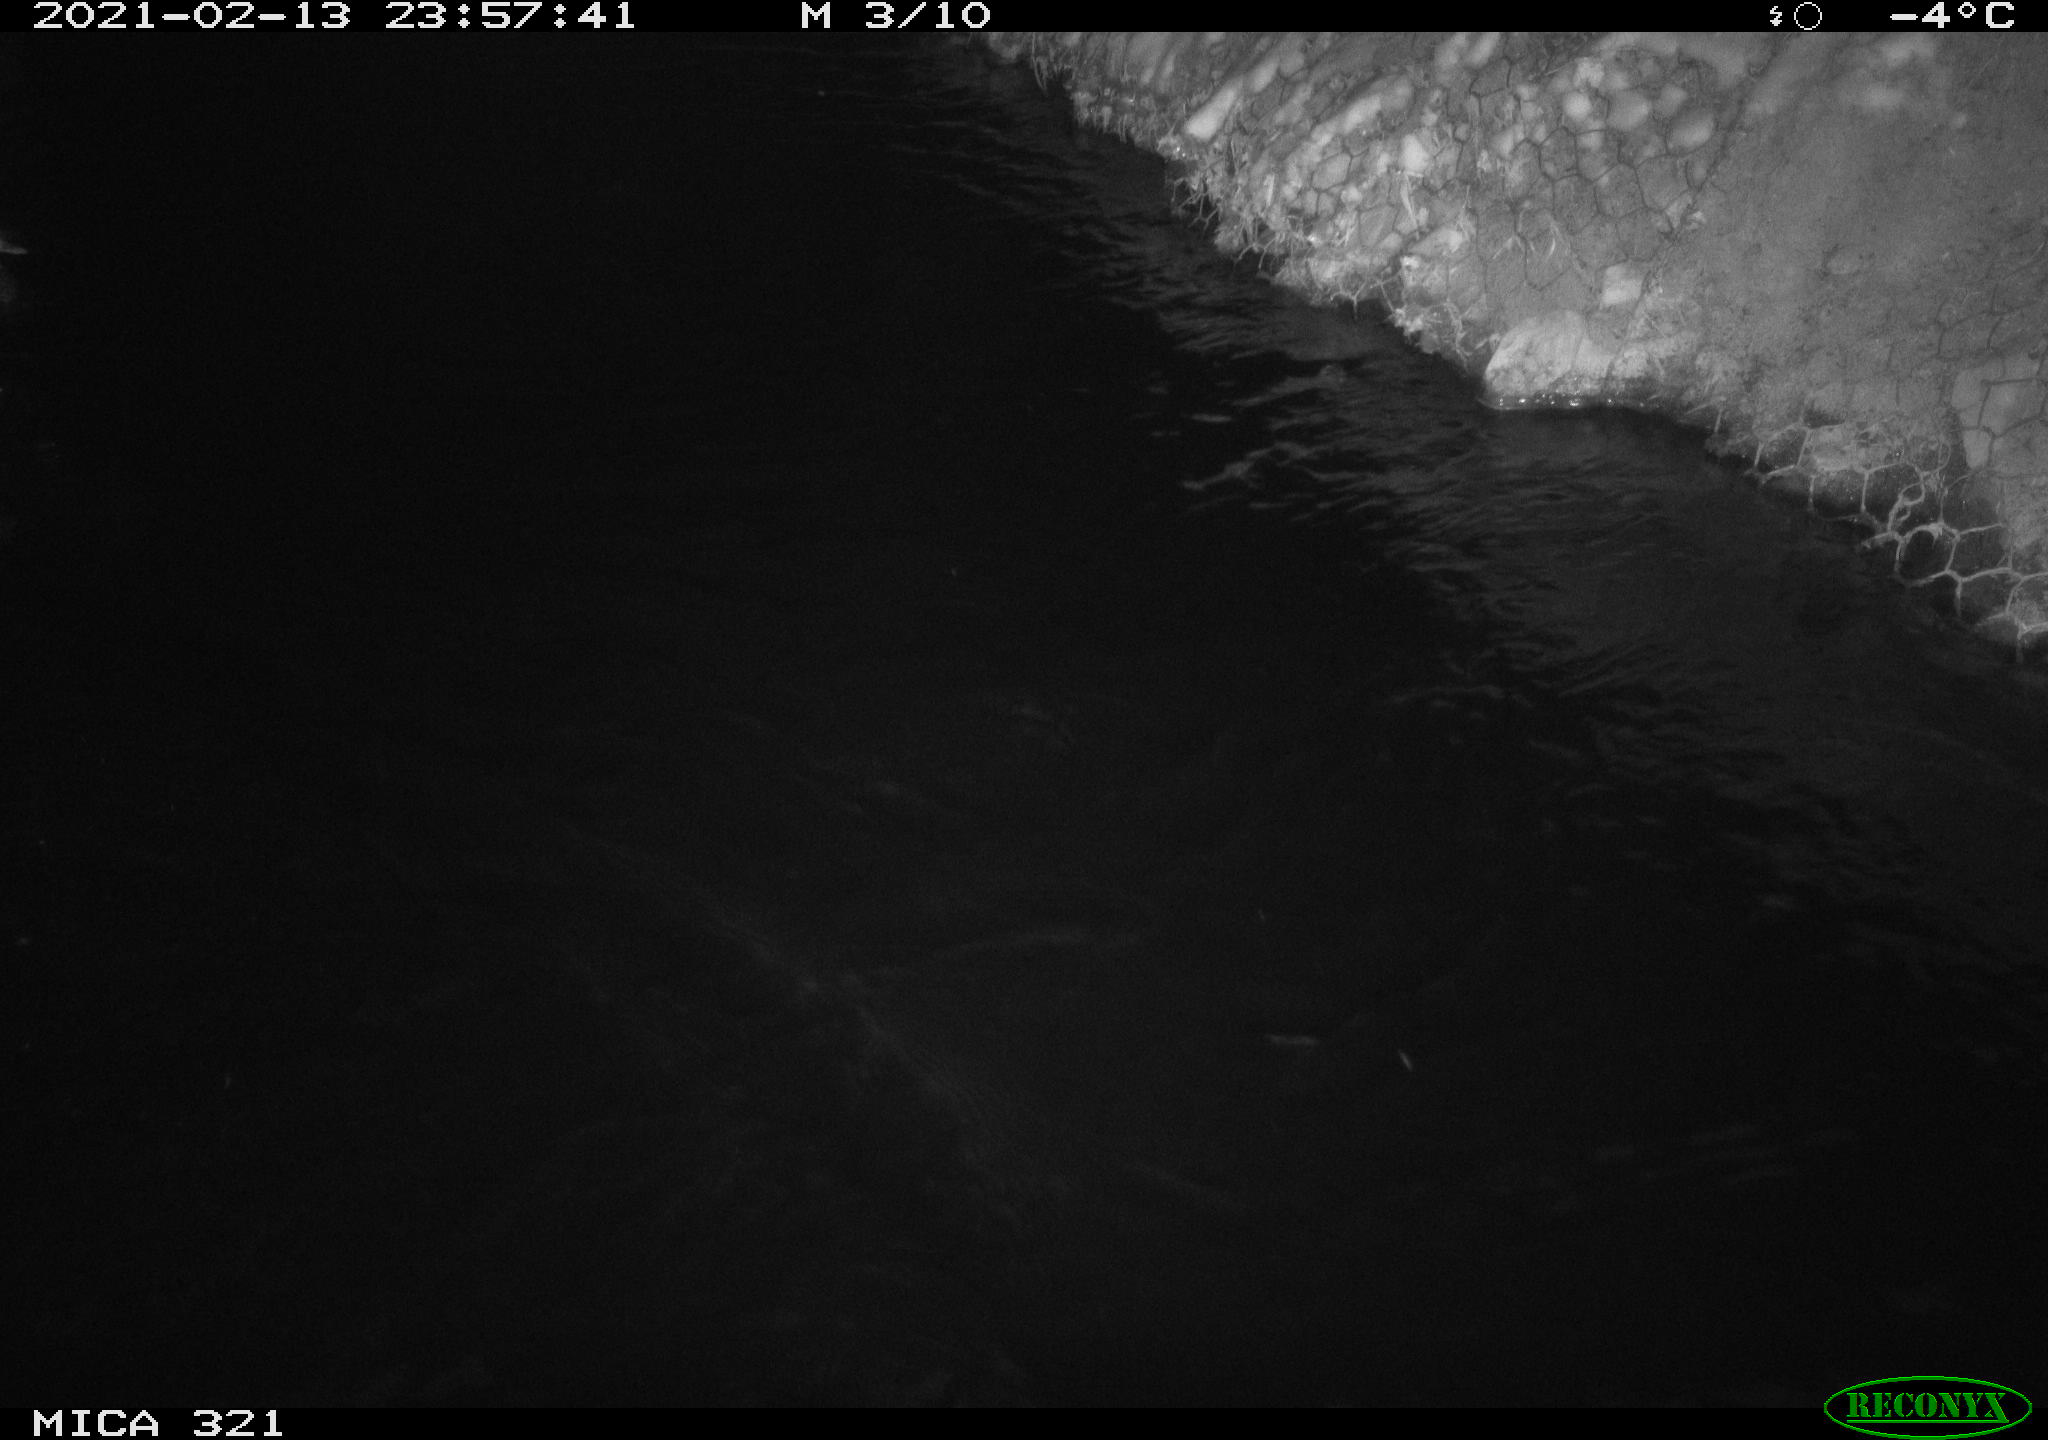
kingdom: Animalia
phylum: Chordata
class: Aves
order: Anseriformes
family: Anatidae
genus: Anas
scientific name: Anas platyrhynchos
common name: Mallard
